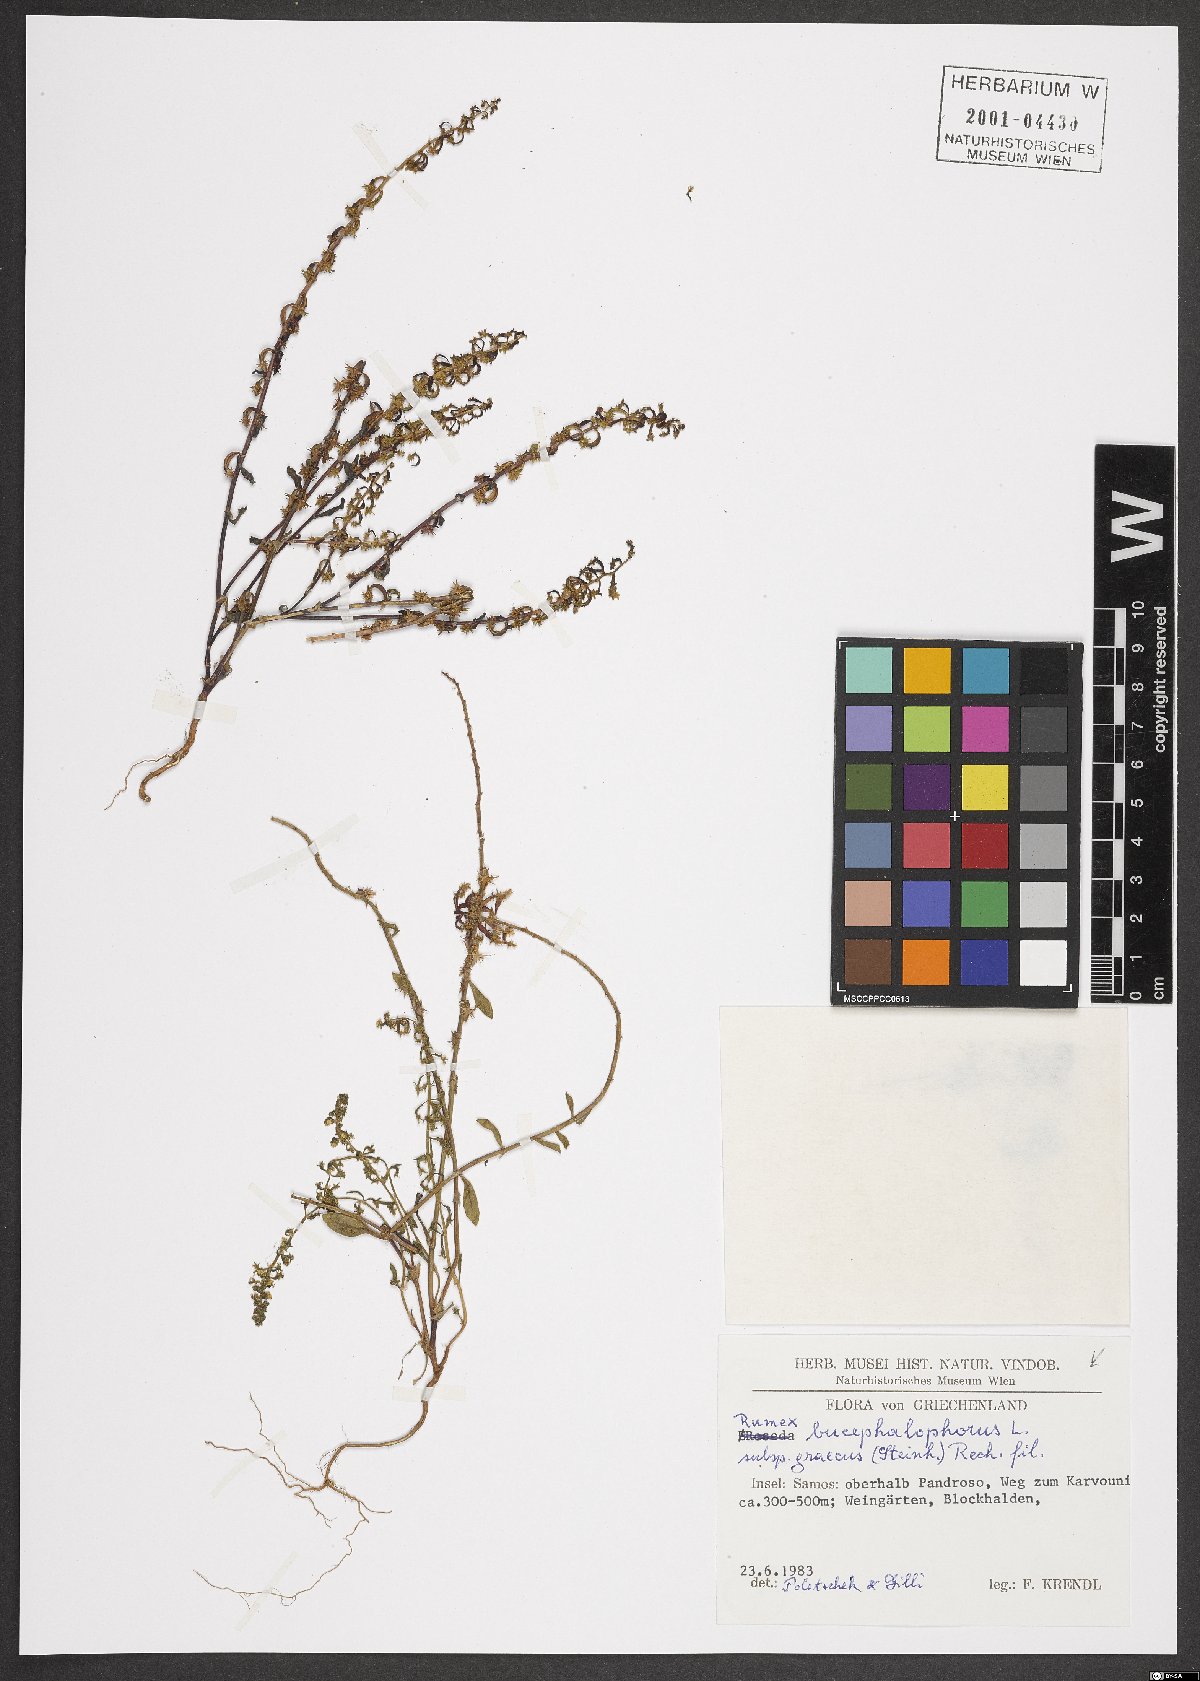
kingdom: Plantae
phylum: Tracheophyta
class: Magnoliopsida
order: Caryophyllales
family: Polygonaceae
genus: Rumex
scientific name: Rumex bucephalophorus
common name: Red dock
